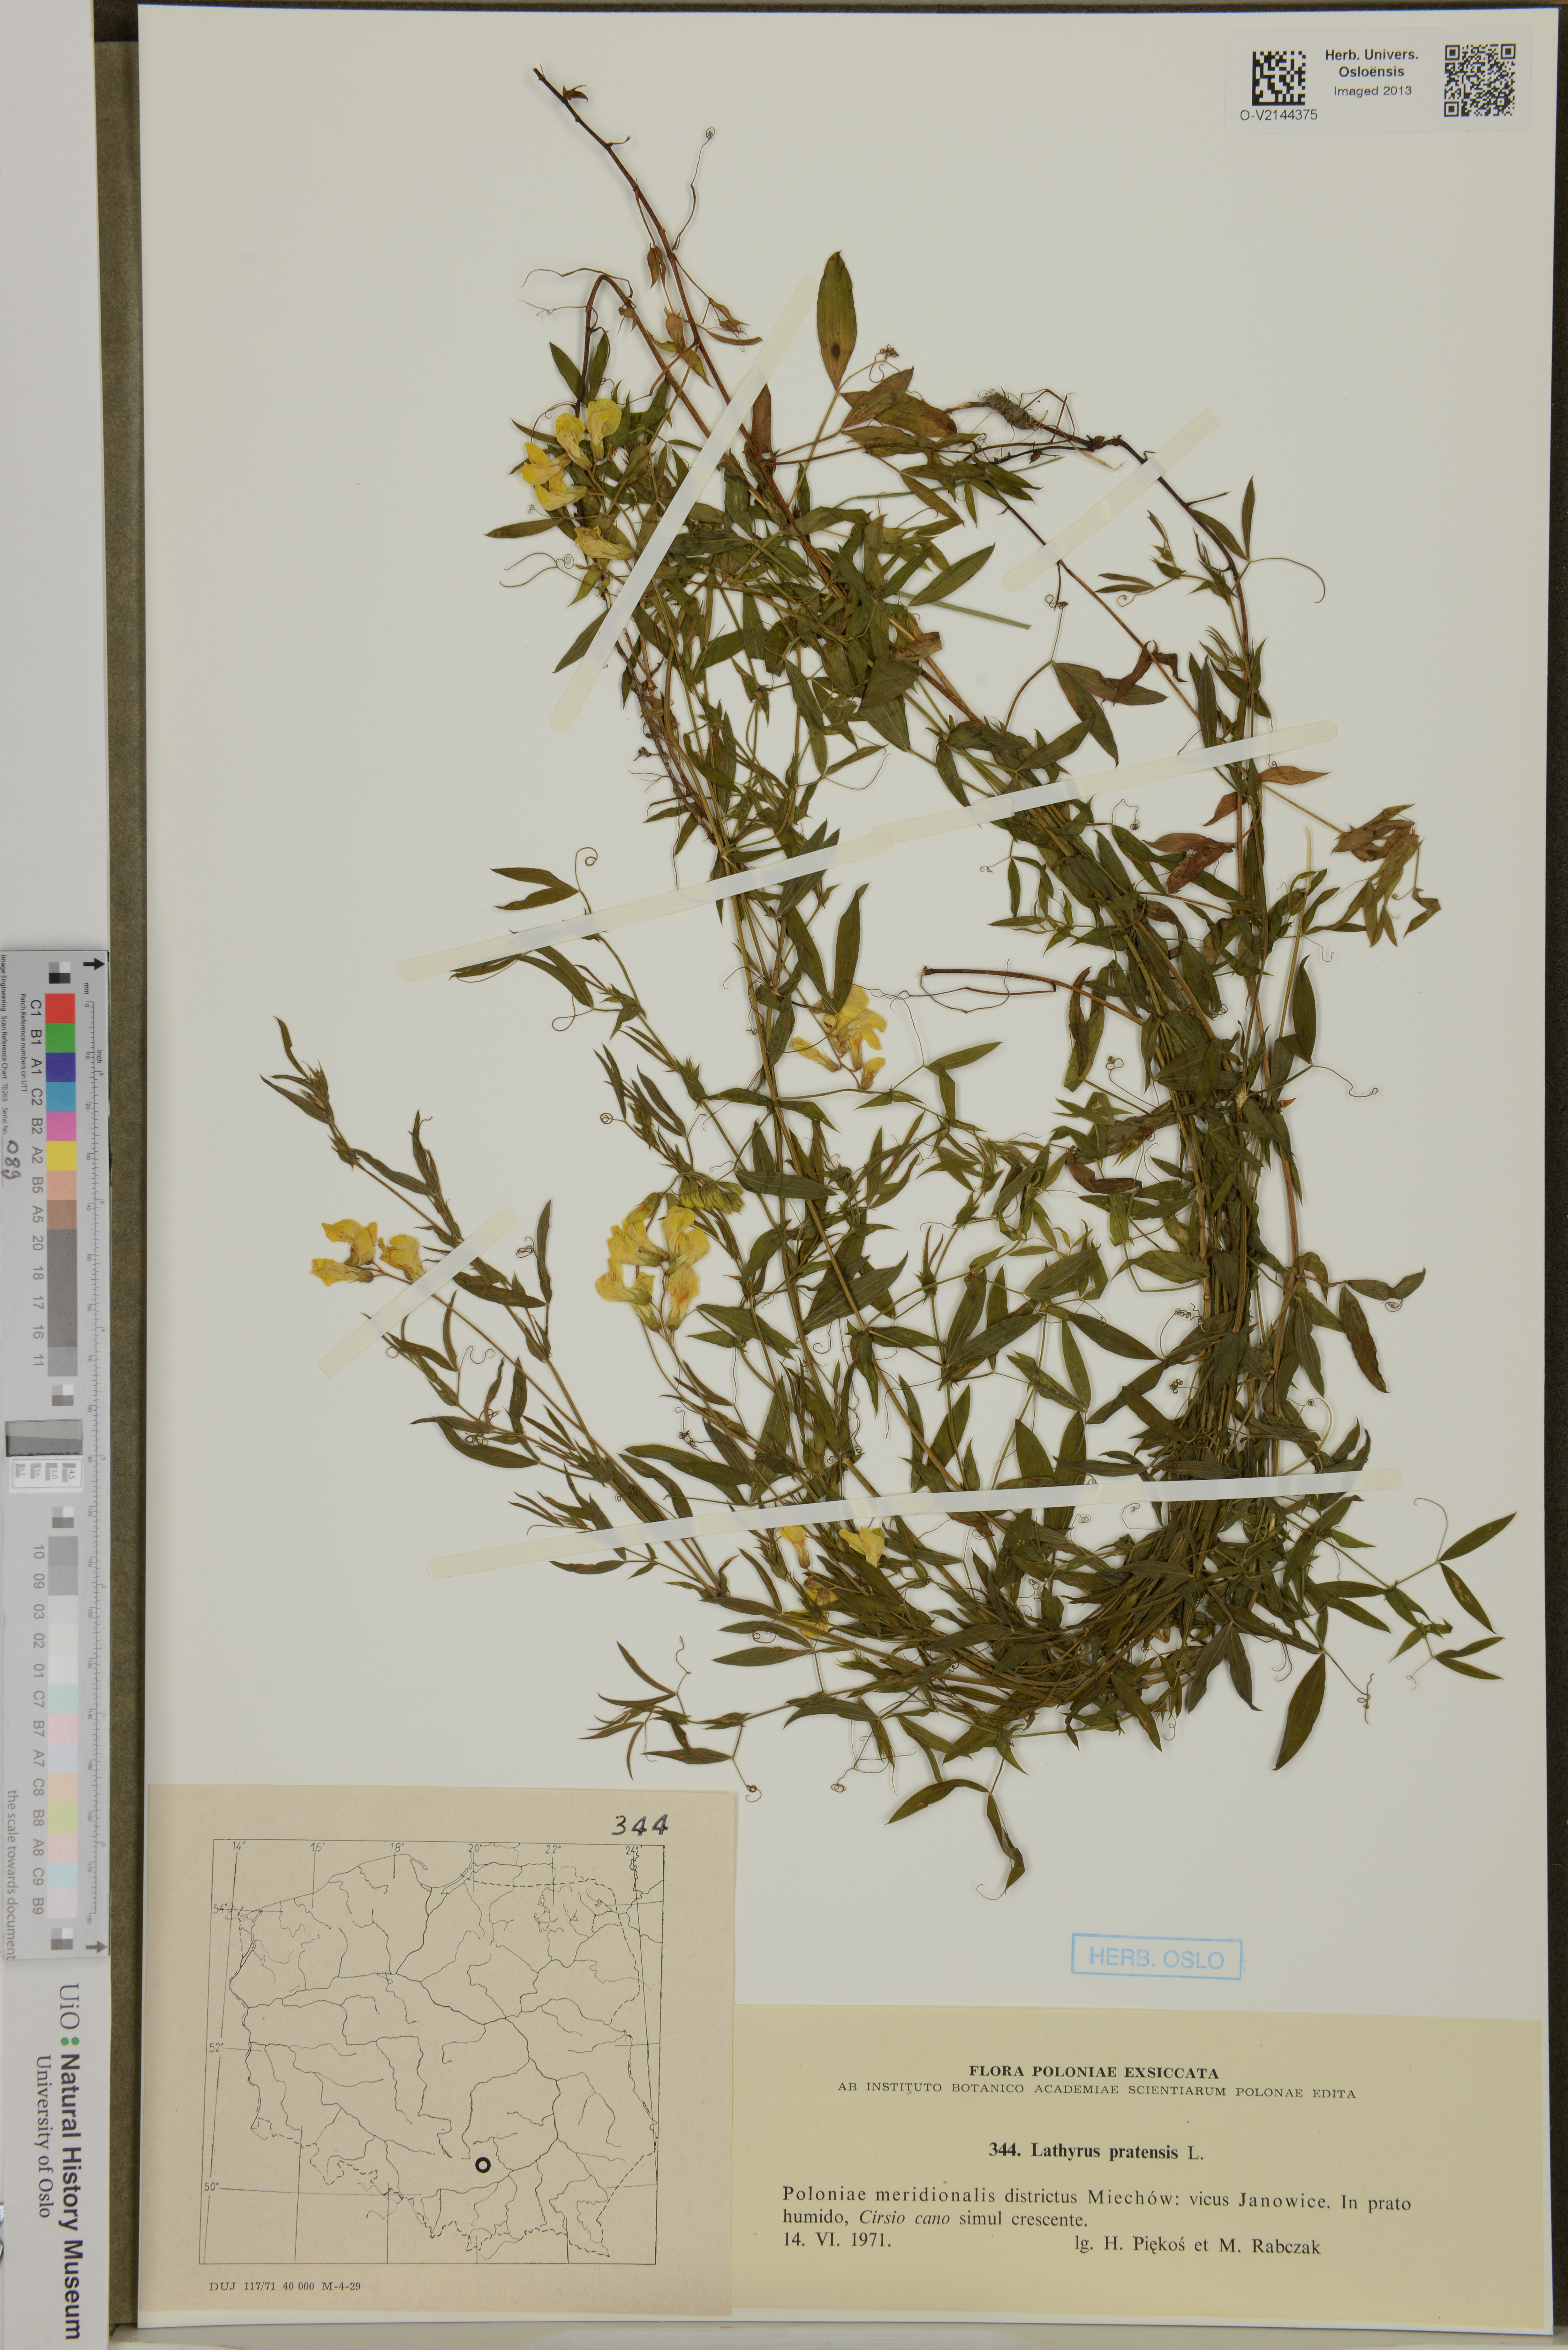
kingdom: Plantae
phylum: Tracheophyta
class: Magnoliopsida
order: Fabales
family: Fabaceae
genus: Lathyrus
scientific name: Lathyrus pratensis
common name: Meadow vetchling
